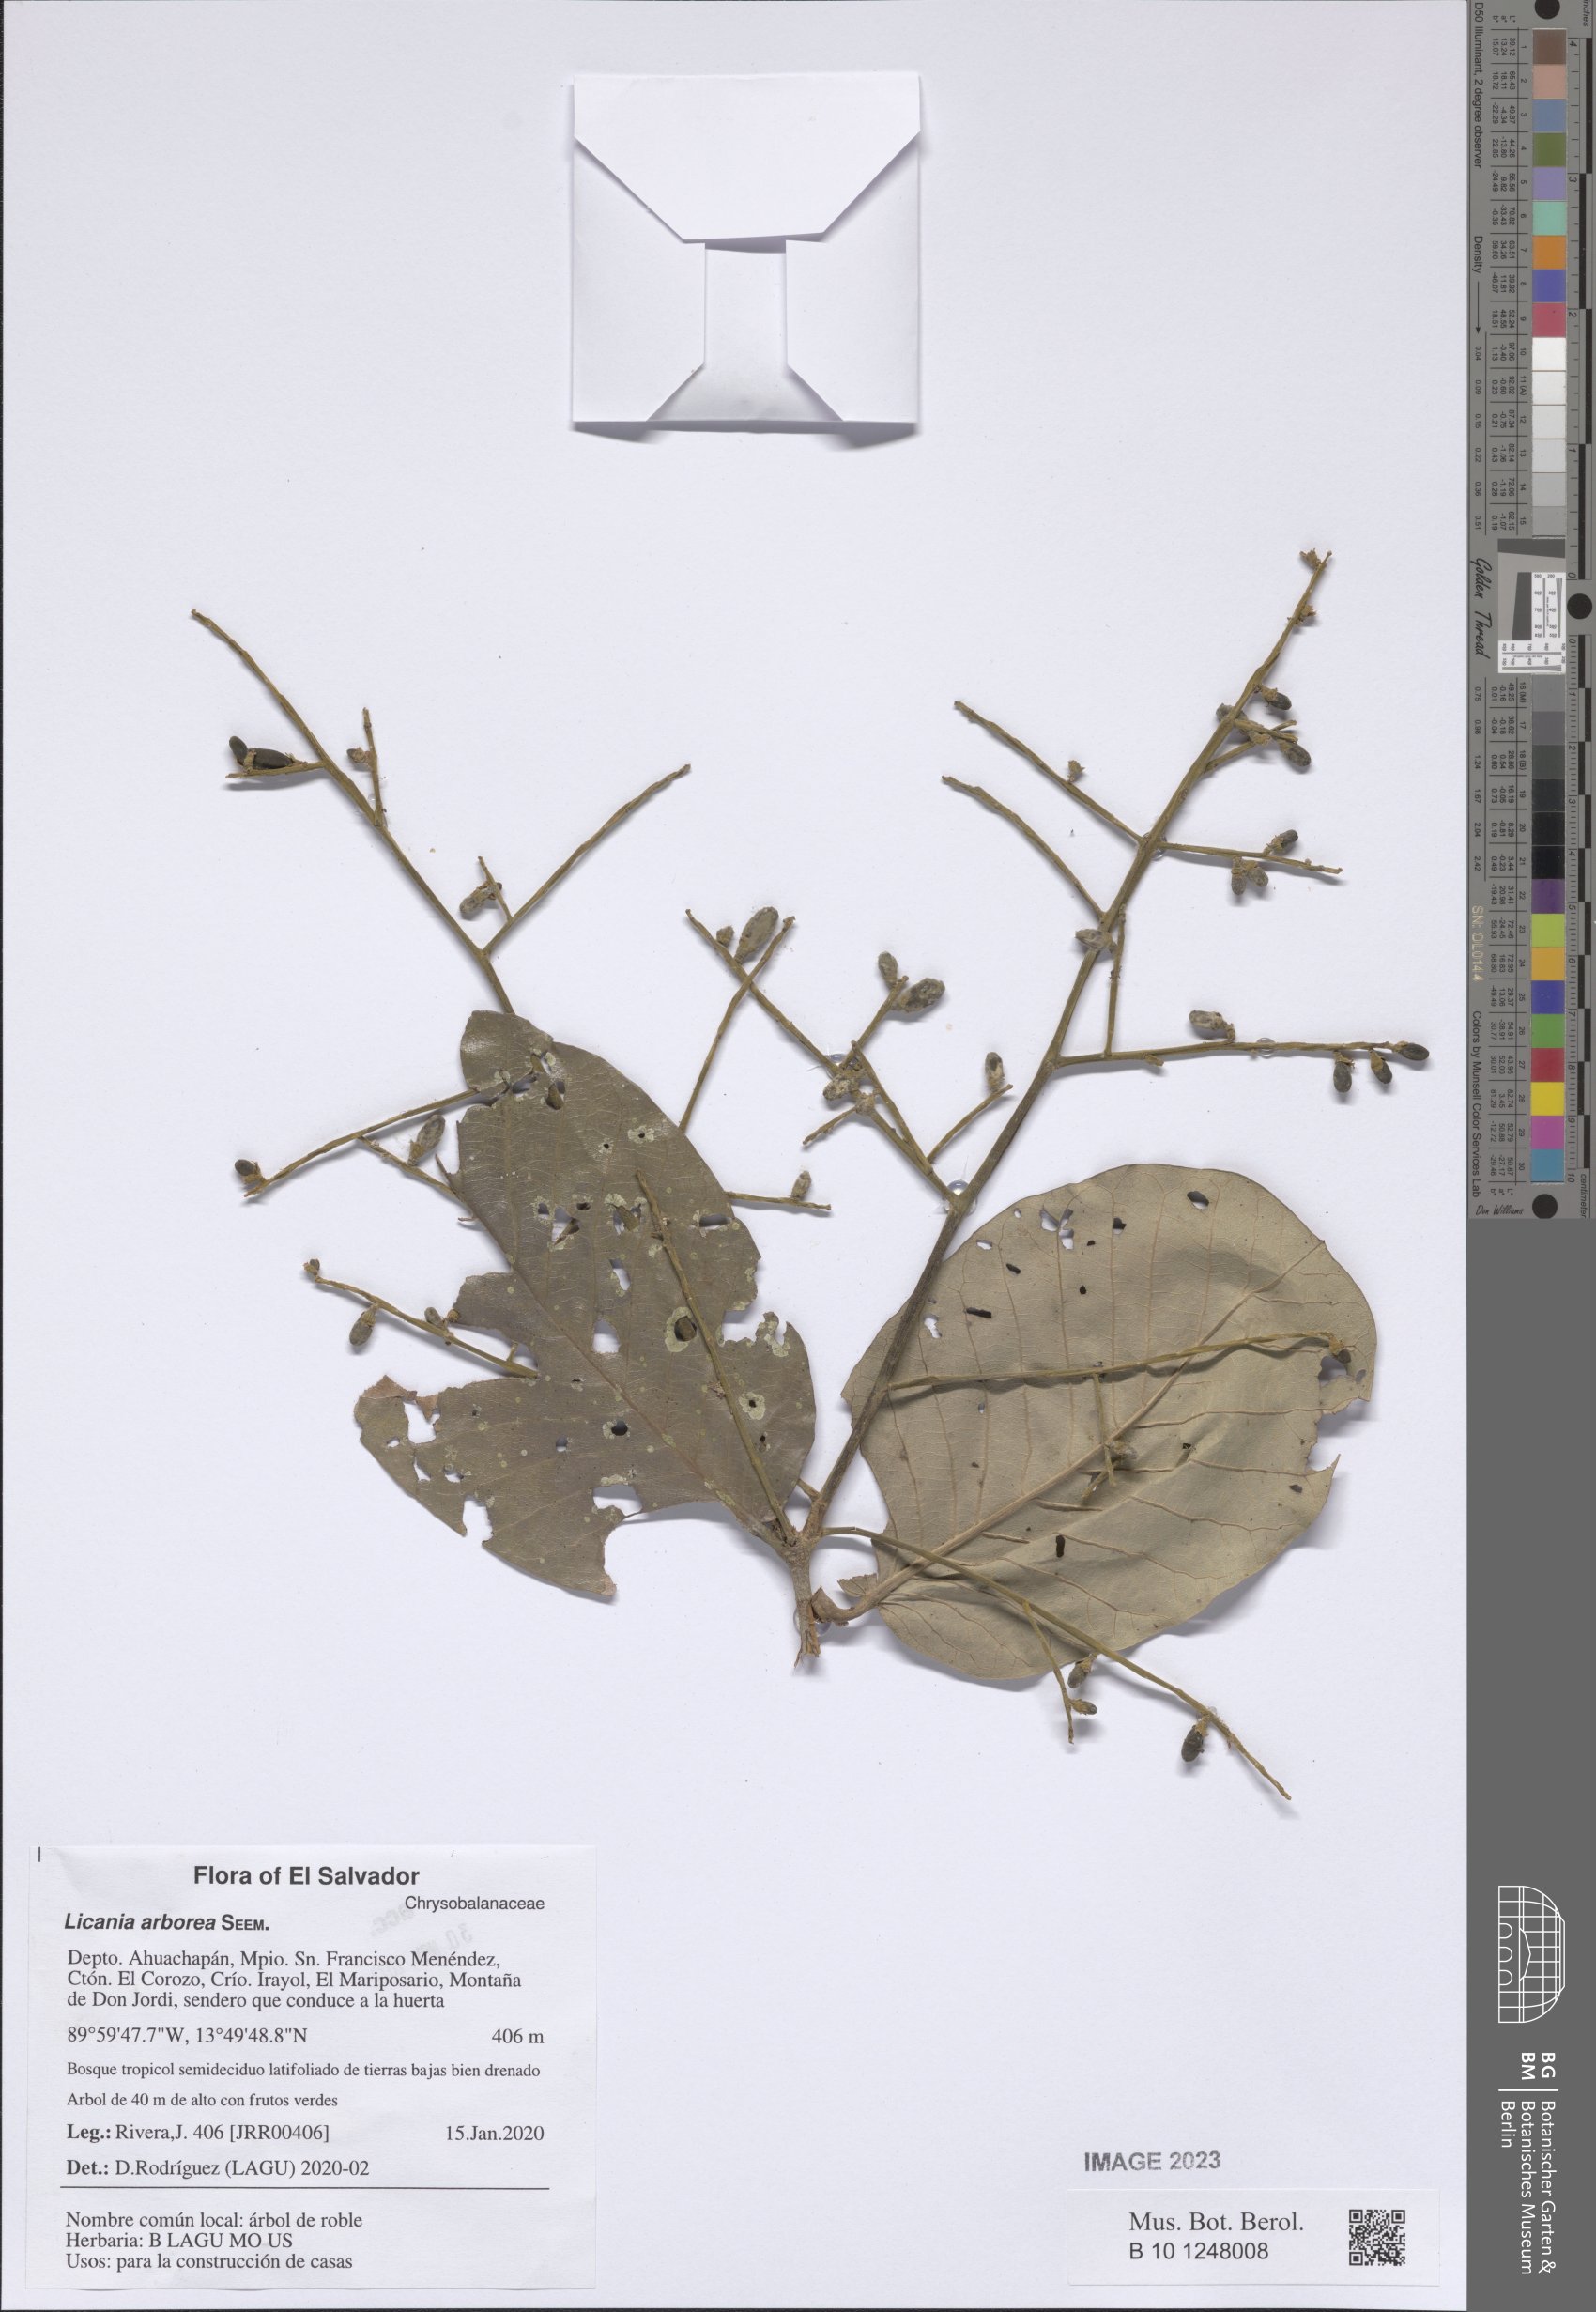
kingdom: Plantae
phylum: Tracheophyta
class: Magnoliopsida
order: Malpighiales
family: Chrysobalanaceae
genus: Microdesmia
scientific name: Microdesmia arborea
